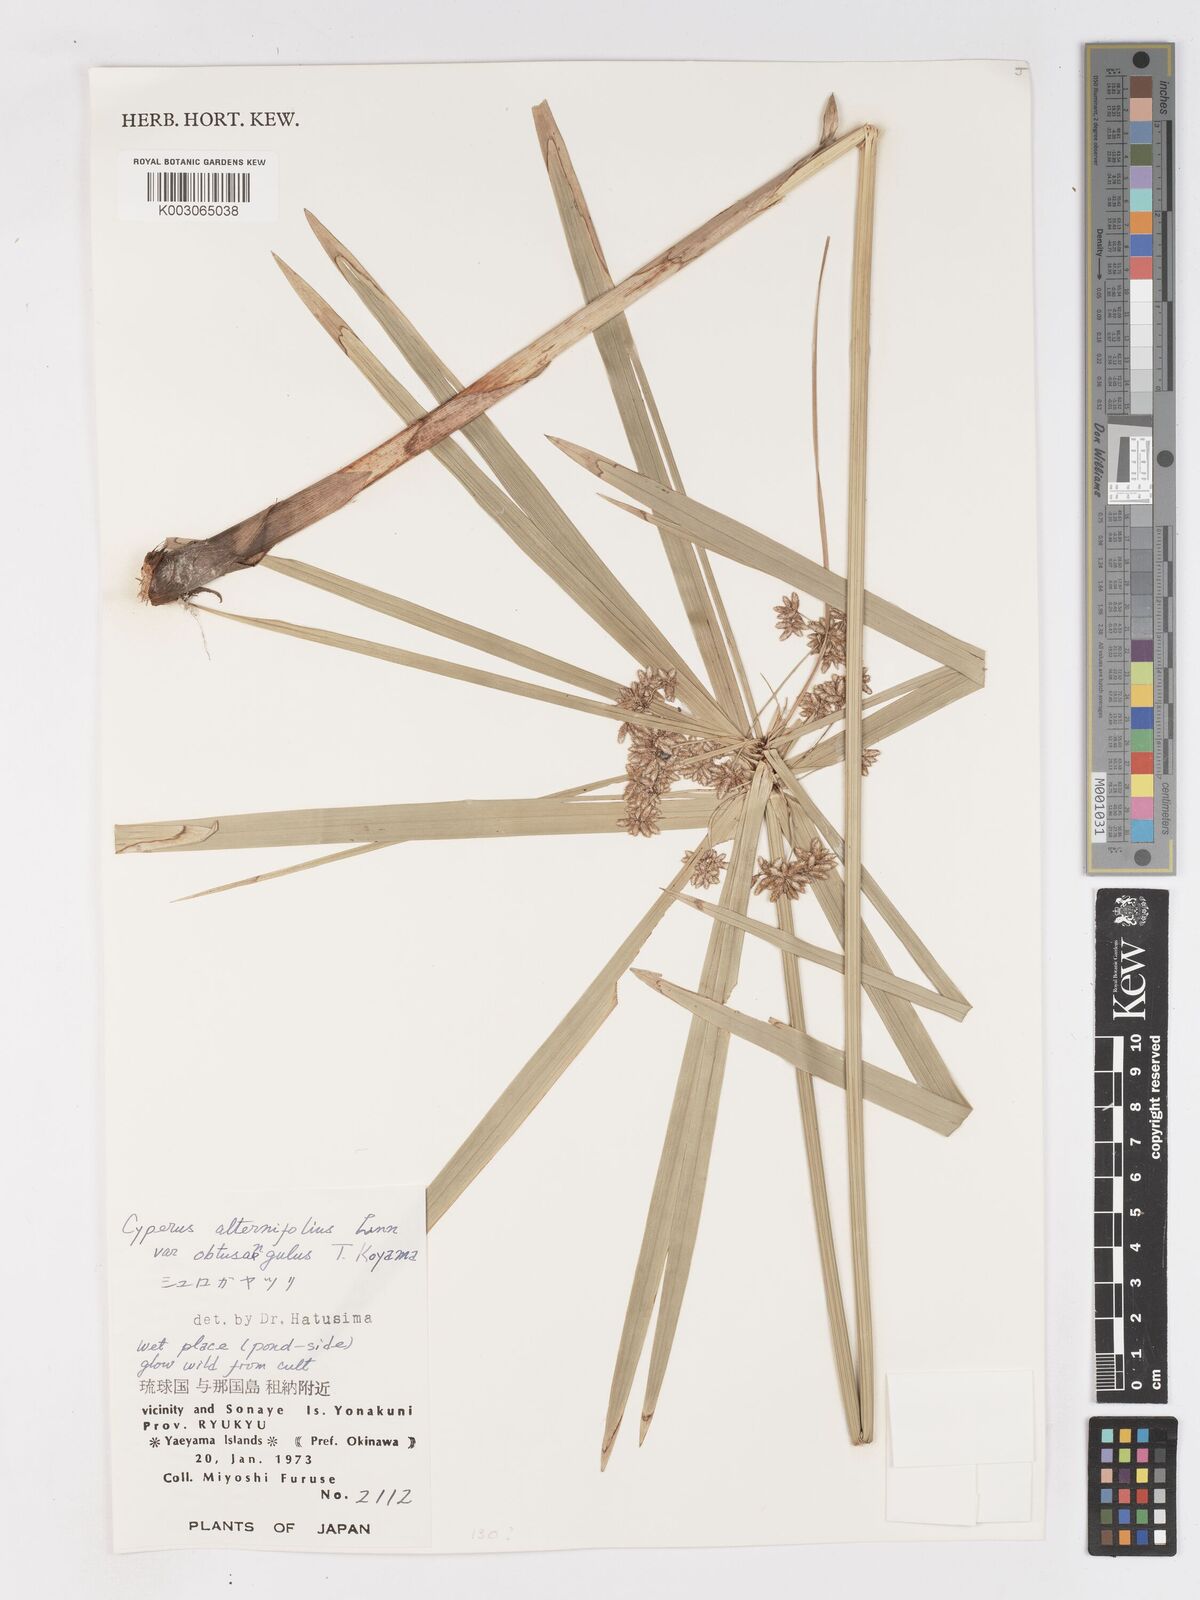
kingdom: Plantae
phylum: Tracheophyta
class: Liliopsida
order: Poales
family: Cyperaceae
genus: Cyperus
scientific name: Cyperus alternifolius
